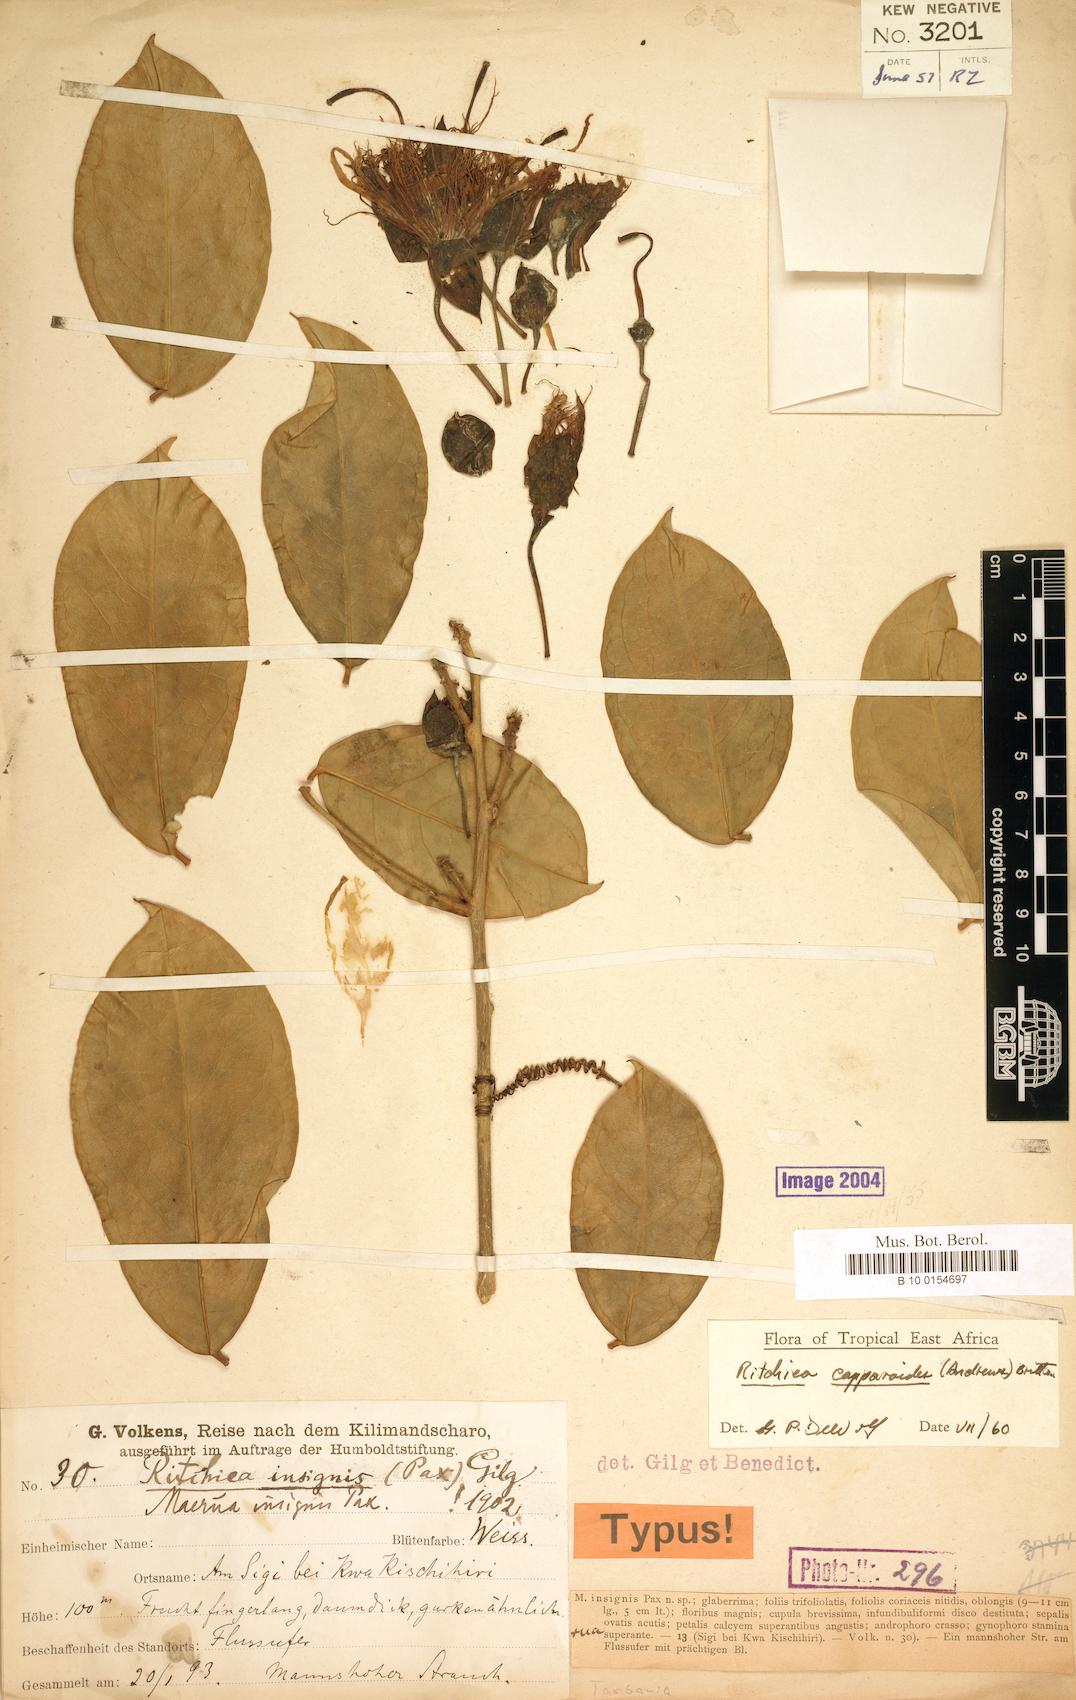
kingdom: Plantae
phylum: Tracheophyta
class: Magnoliopsida
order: Brassicales
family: Capparaceae
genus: Ritchiea
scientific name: Ritchiea capparoides
